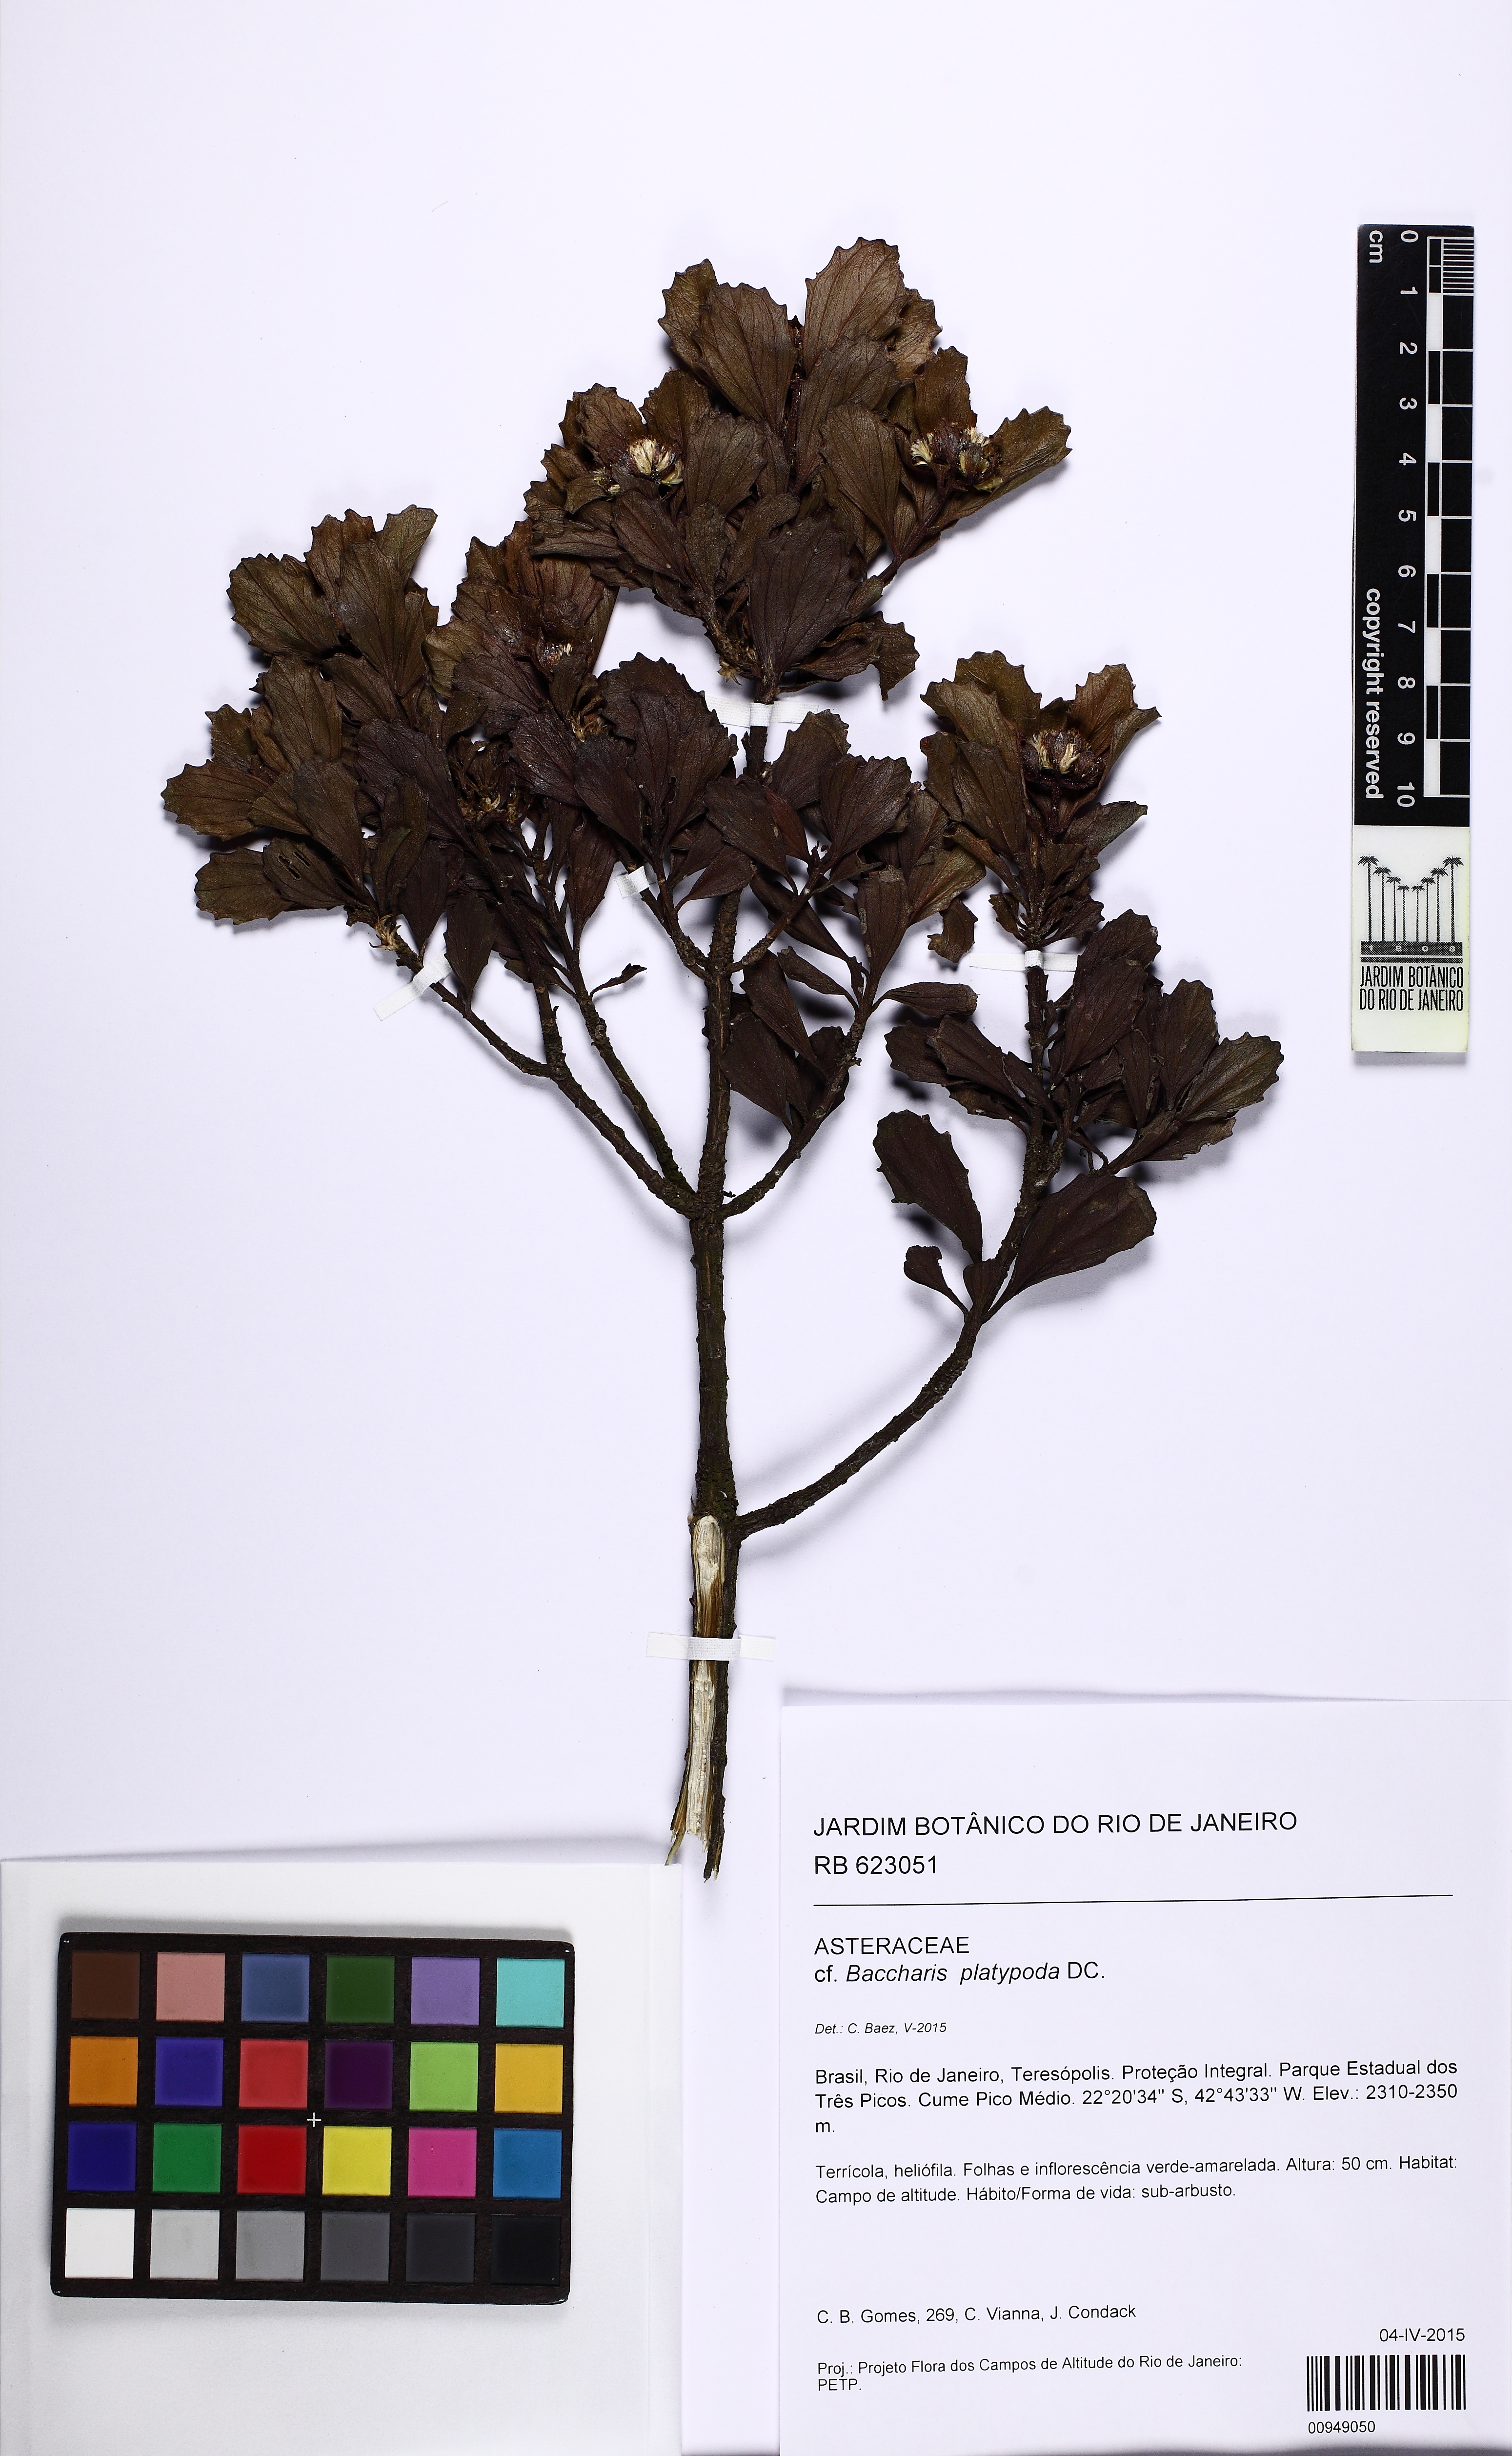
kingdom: Plantae
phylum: Tracheophyta
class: Magnoliopsida
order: Asterales
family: Asteraceae
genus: Baccharis
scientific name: Baccharis platypoda
